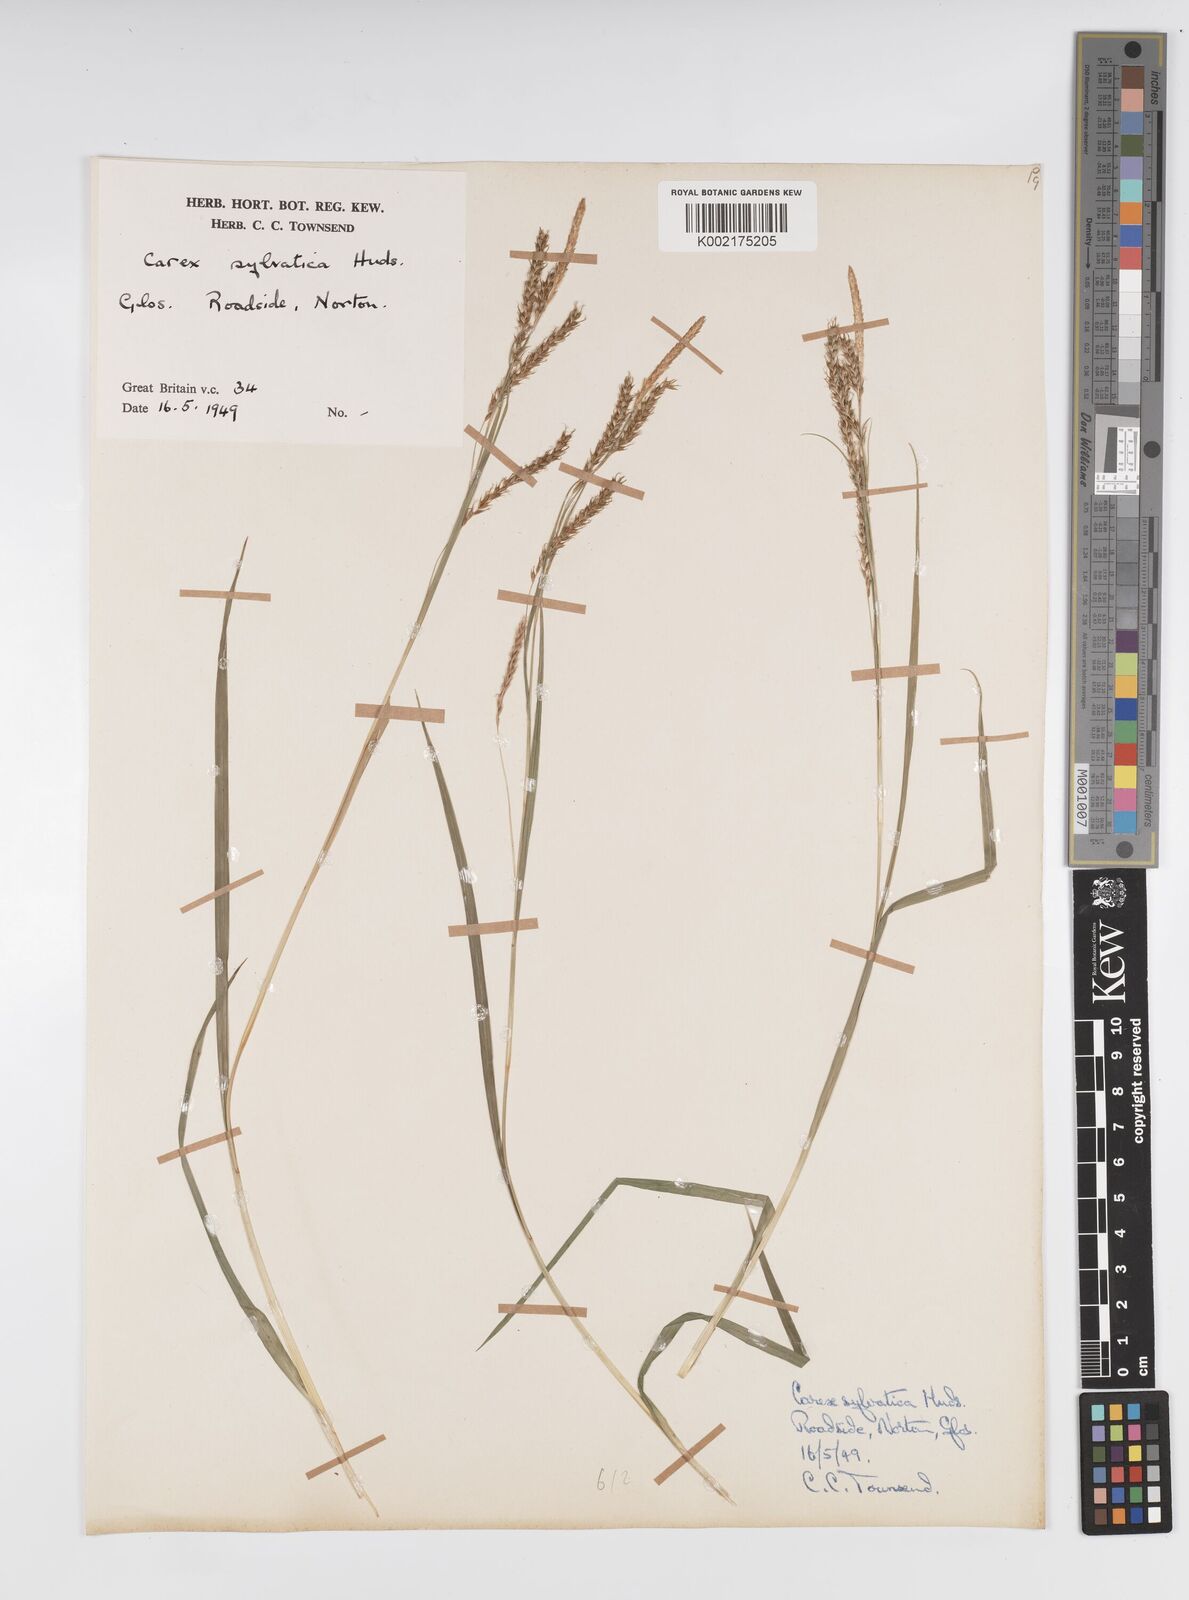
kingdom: Plantae
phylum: Tracheophyta
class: Liliopsida
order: Poales
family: Cyperaceae
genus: Carex
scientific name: Carex sylvatica
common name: Wood-sedge
